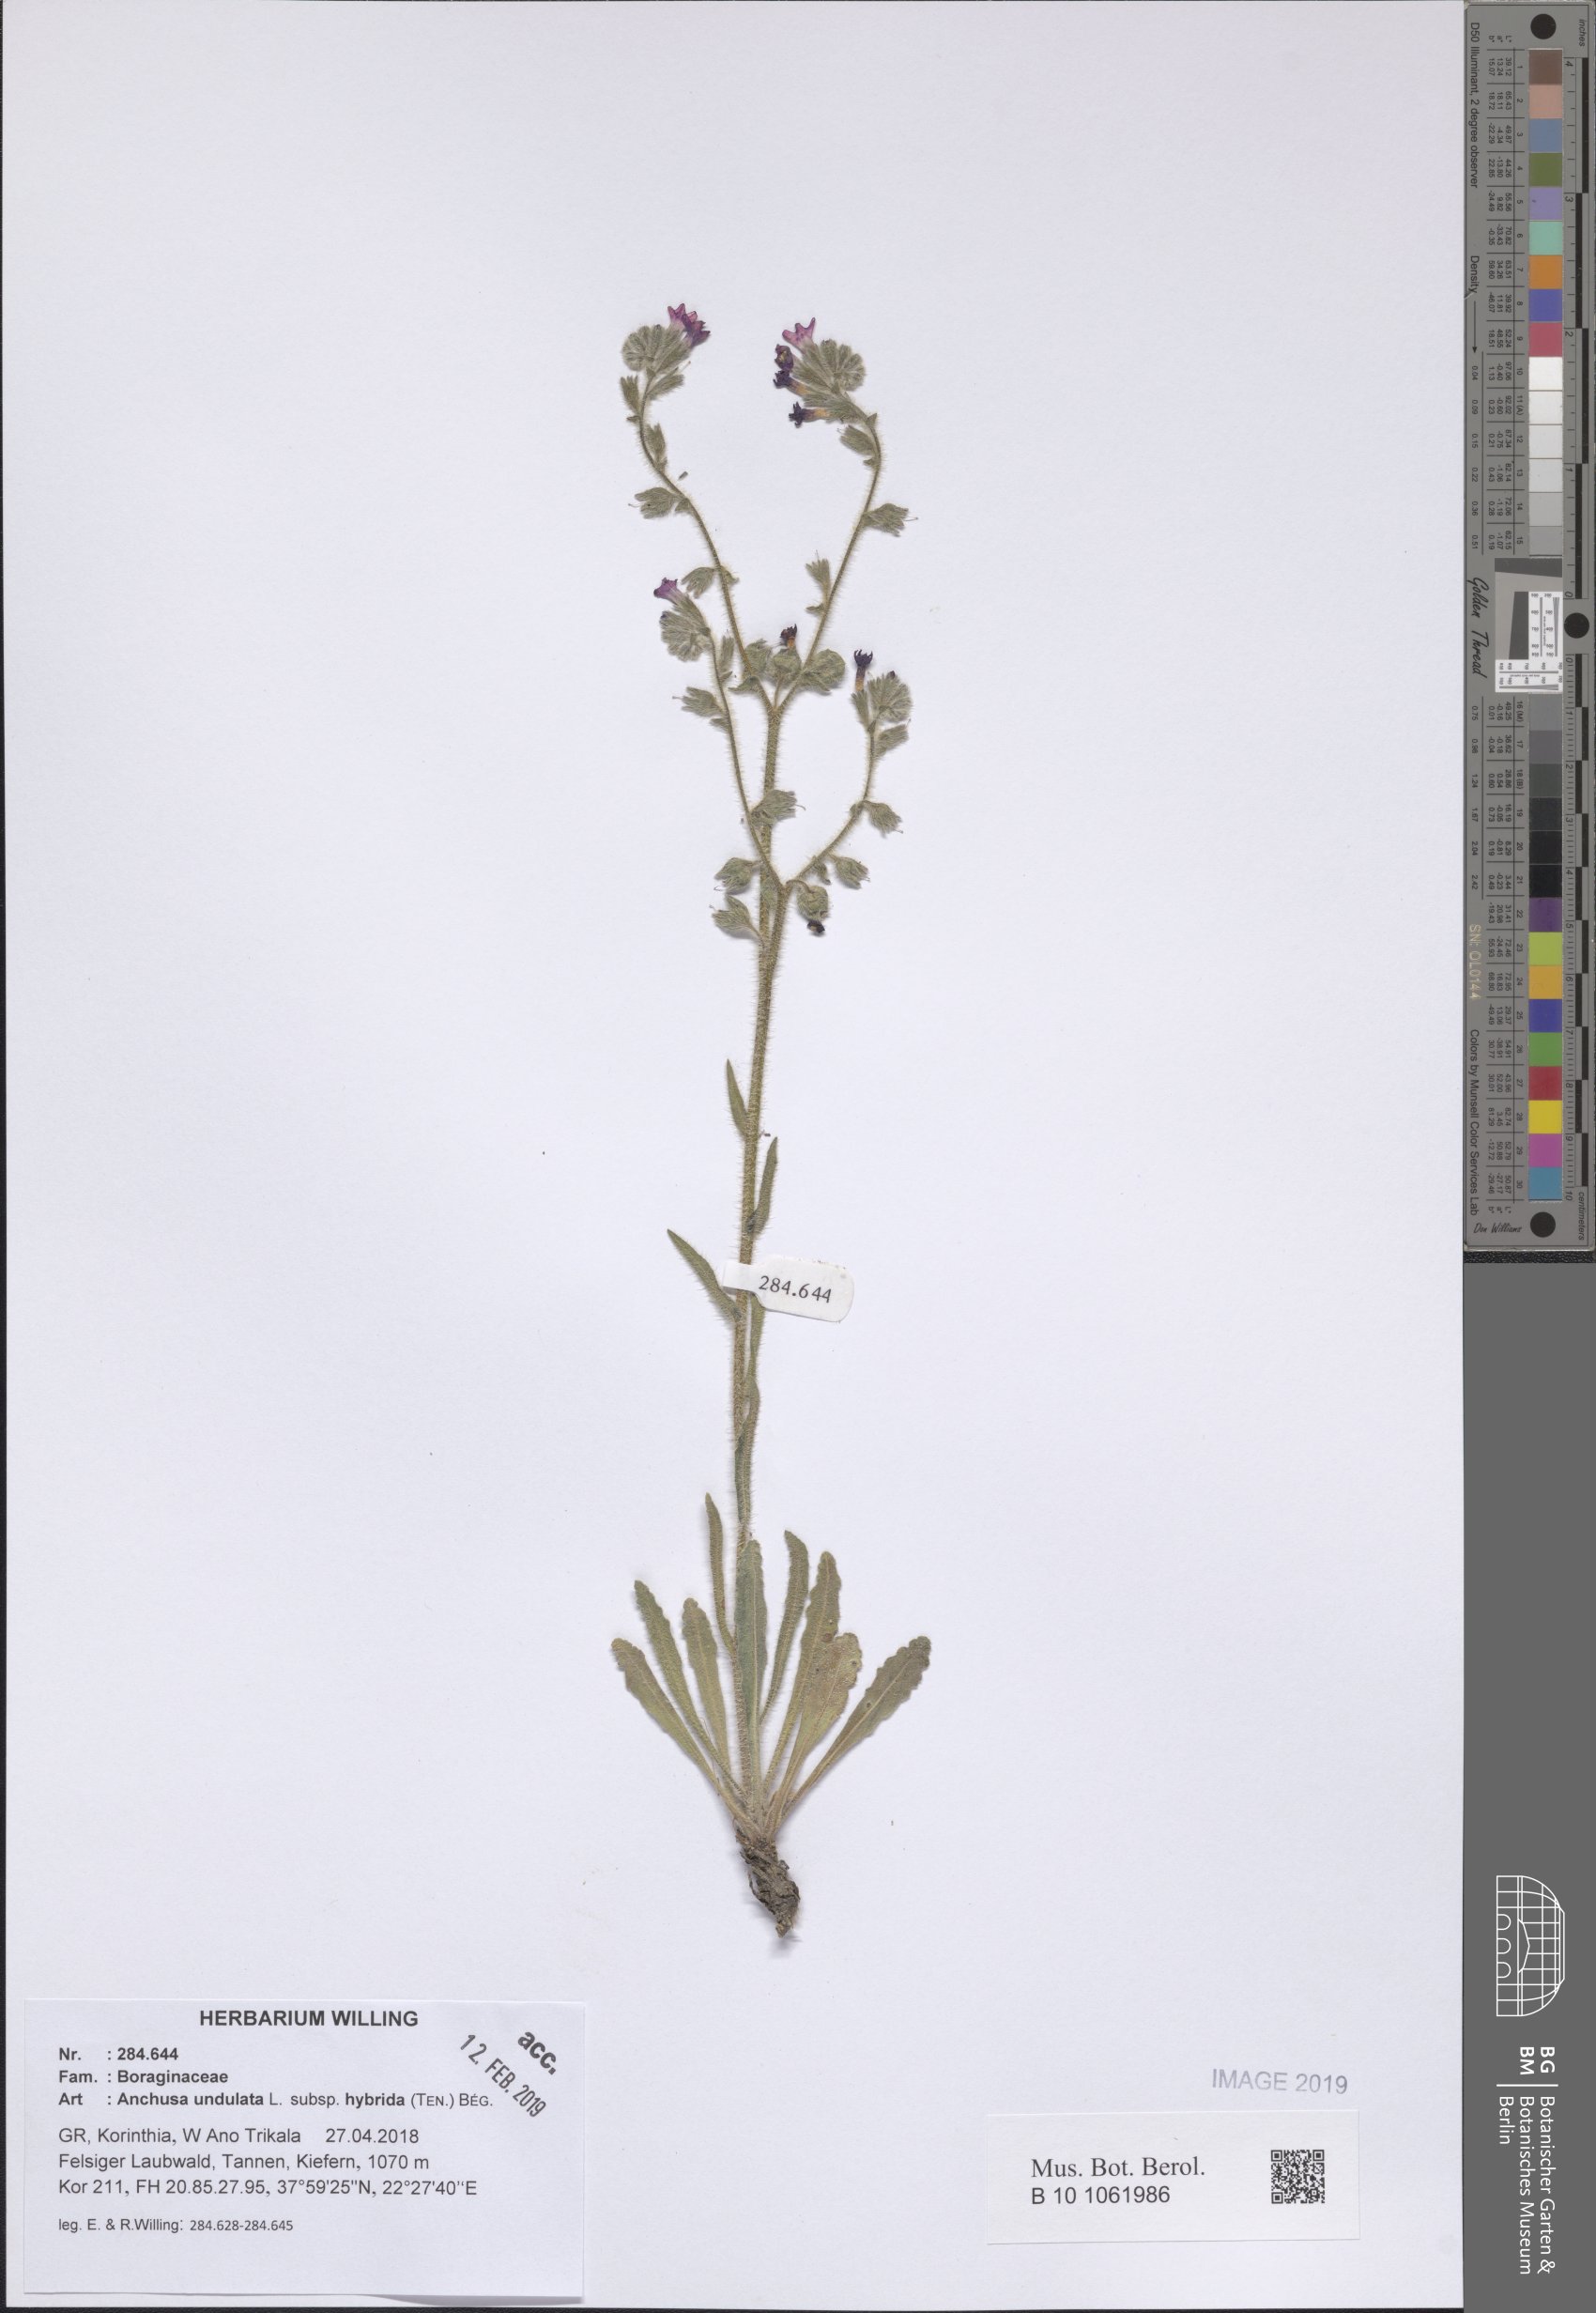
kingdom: Plantae
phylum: Tracheophyta
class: Magnoliopsida
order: Boraginales
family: Boraginaceae
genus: Anchusa
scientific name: Anchusa undulata
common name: Undulate alkanet
